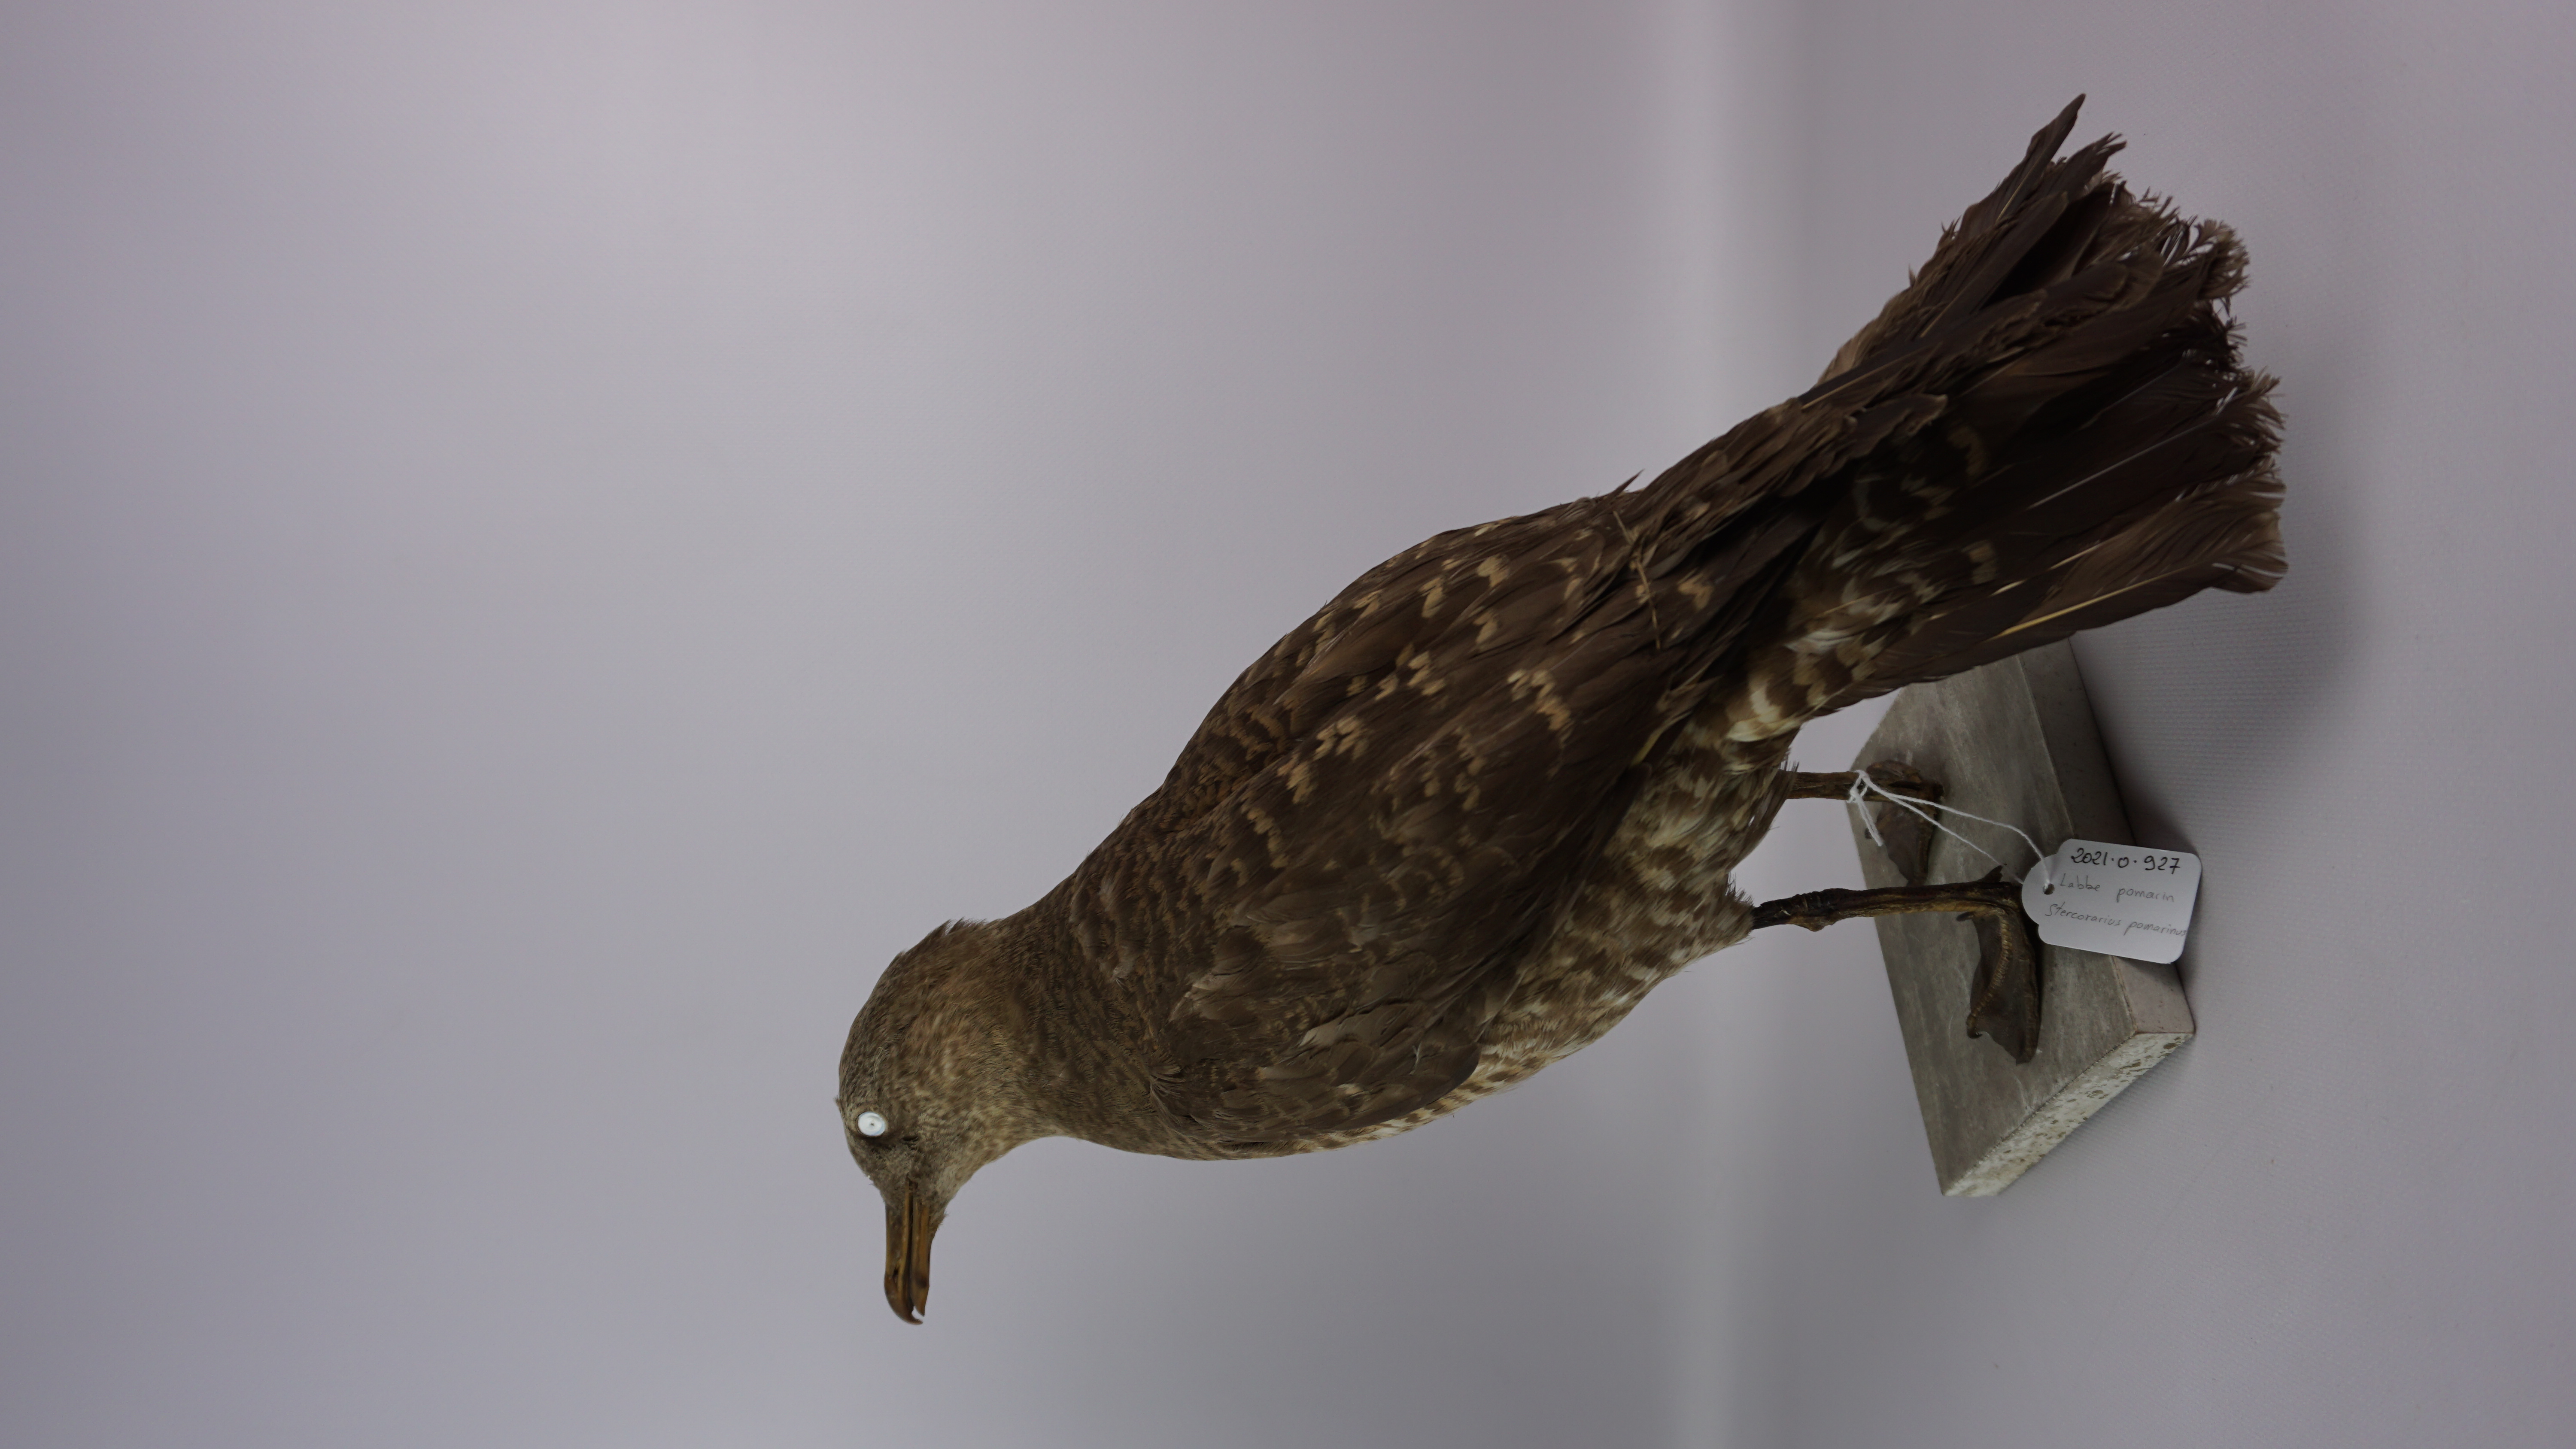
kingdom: Animalia
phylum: Chordata
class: Aves
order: Charadriiformes
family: Stercorariidae
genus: Stercorarius
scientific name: Stercorarius pomarinus
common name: Pomarine jaeger
